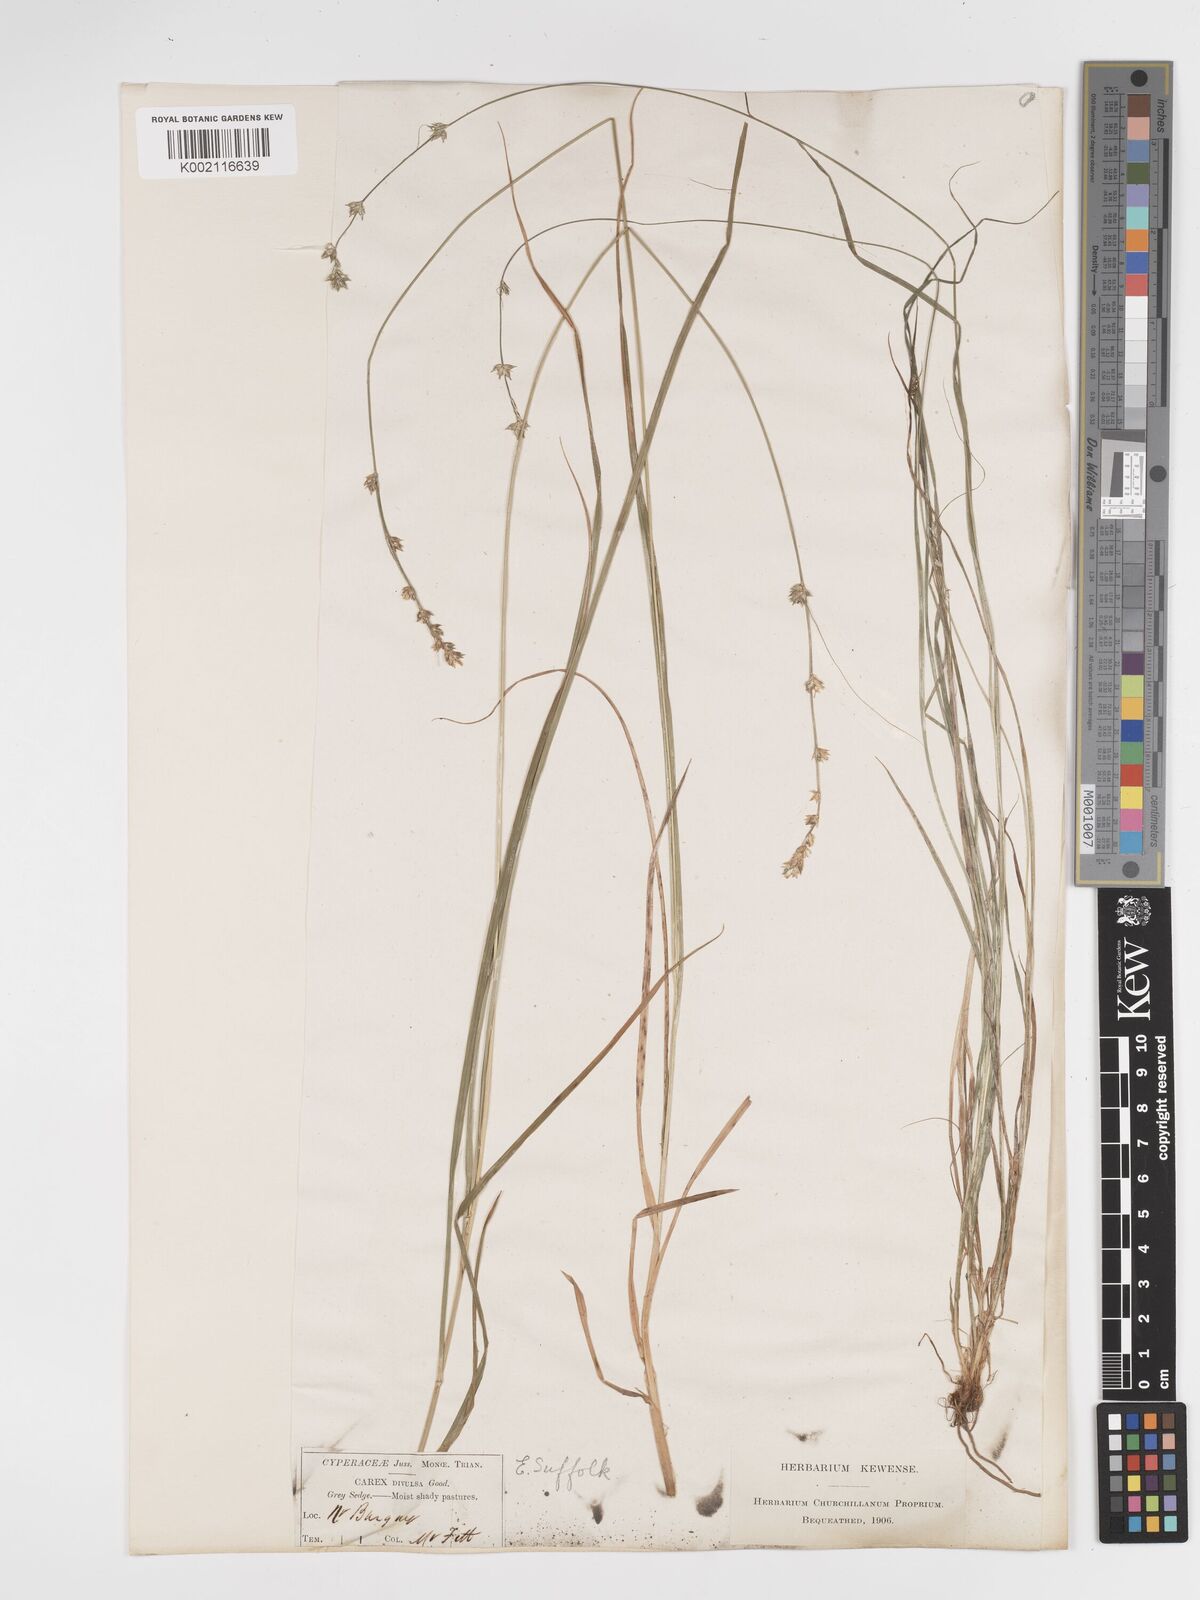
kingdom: Plantae
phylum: Tracheophyta
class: Liliopsida
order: Poales
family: Cyperaceae
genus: Carex
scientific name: Carex divulsa
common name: Grassland sedge
